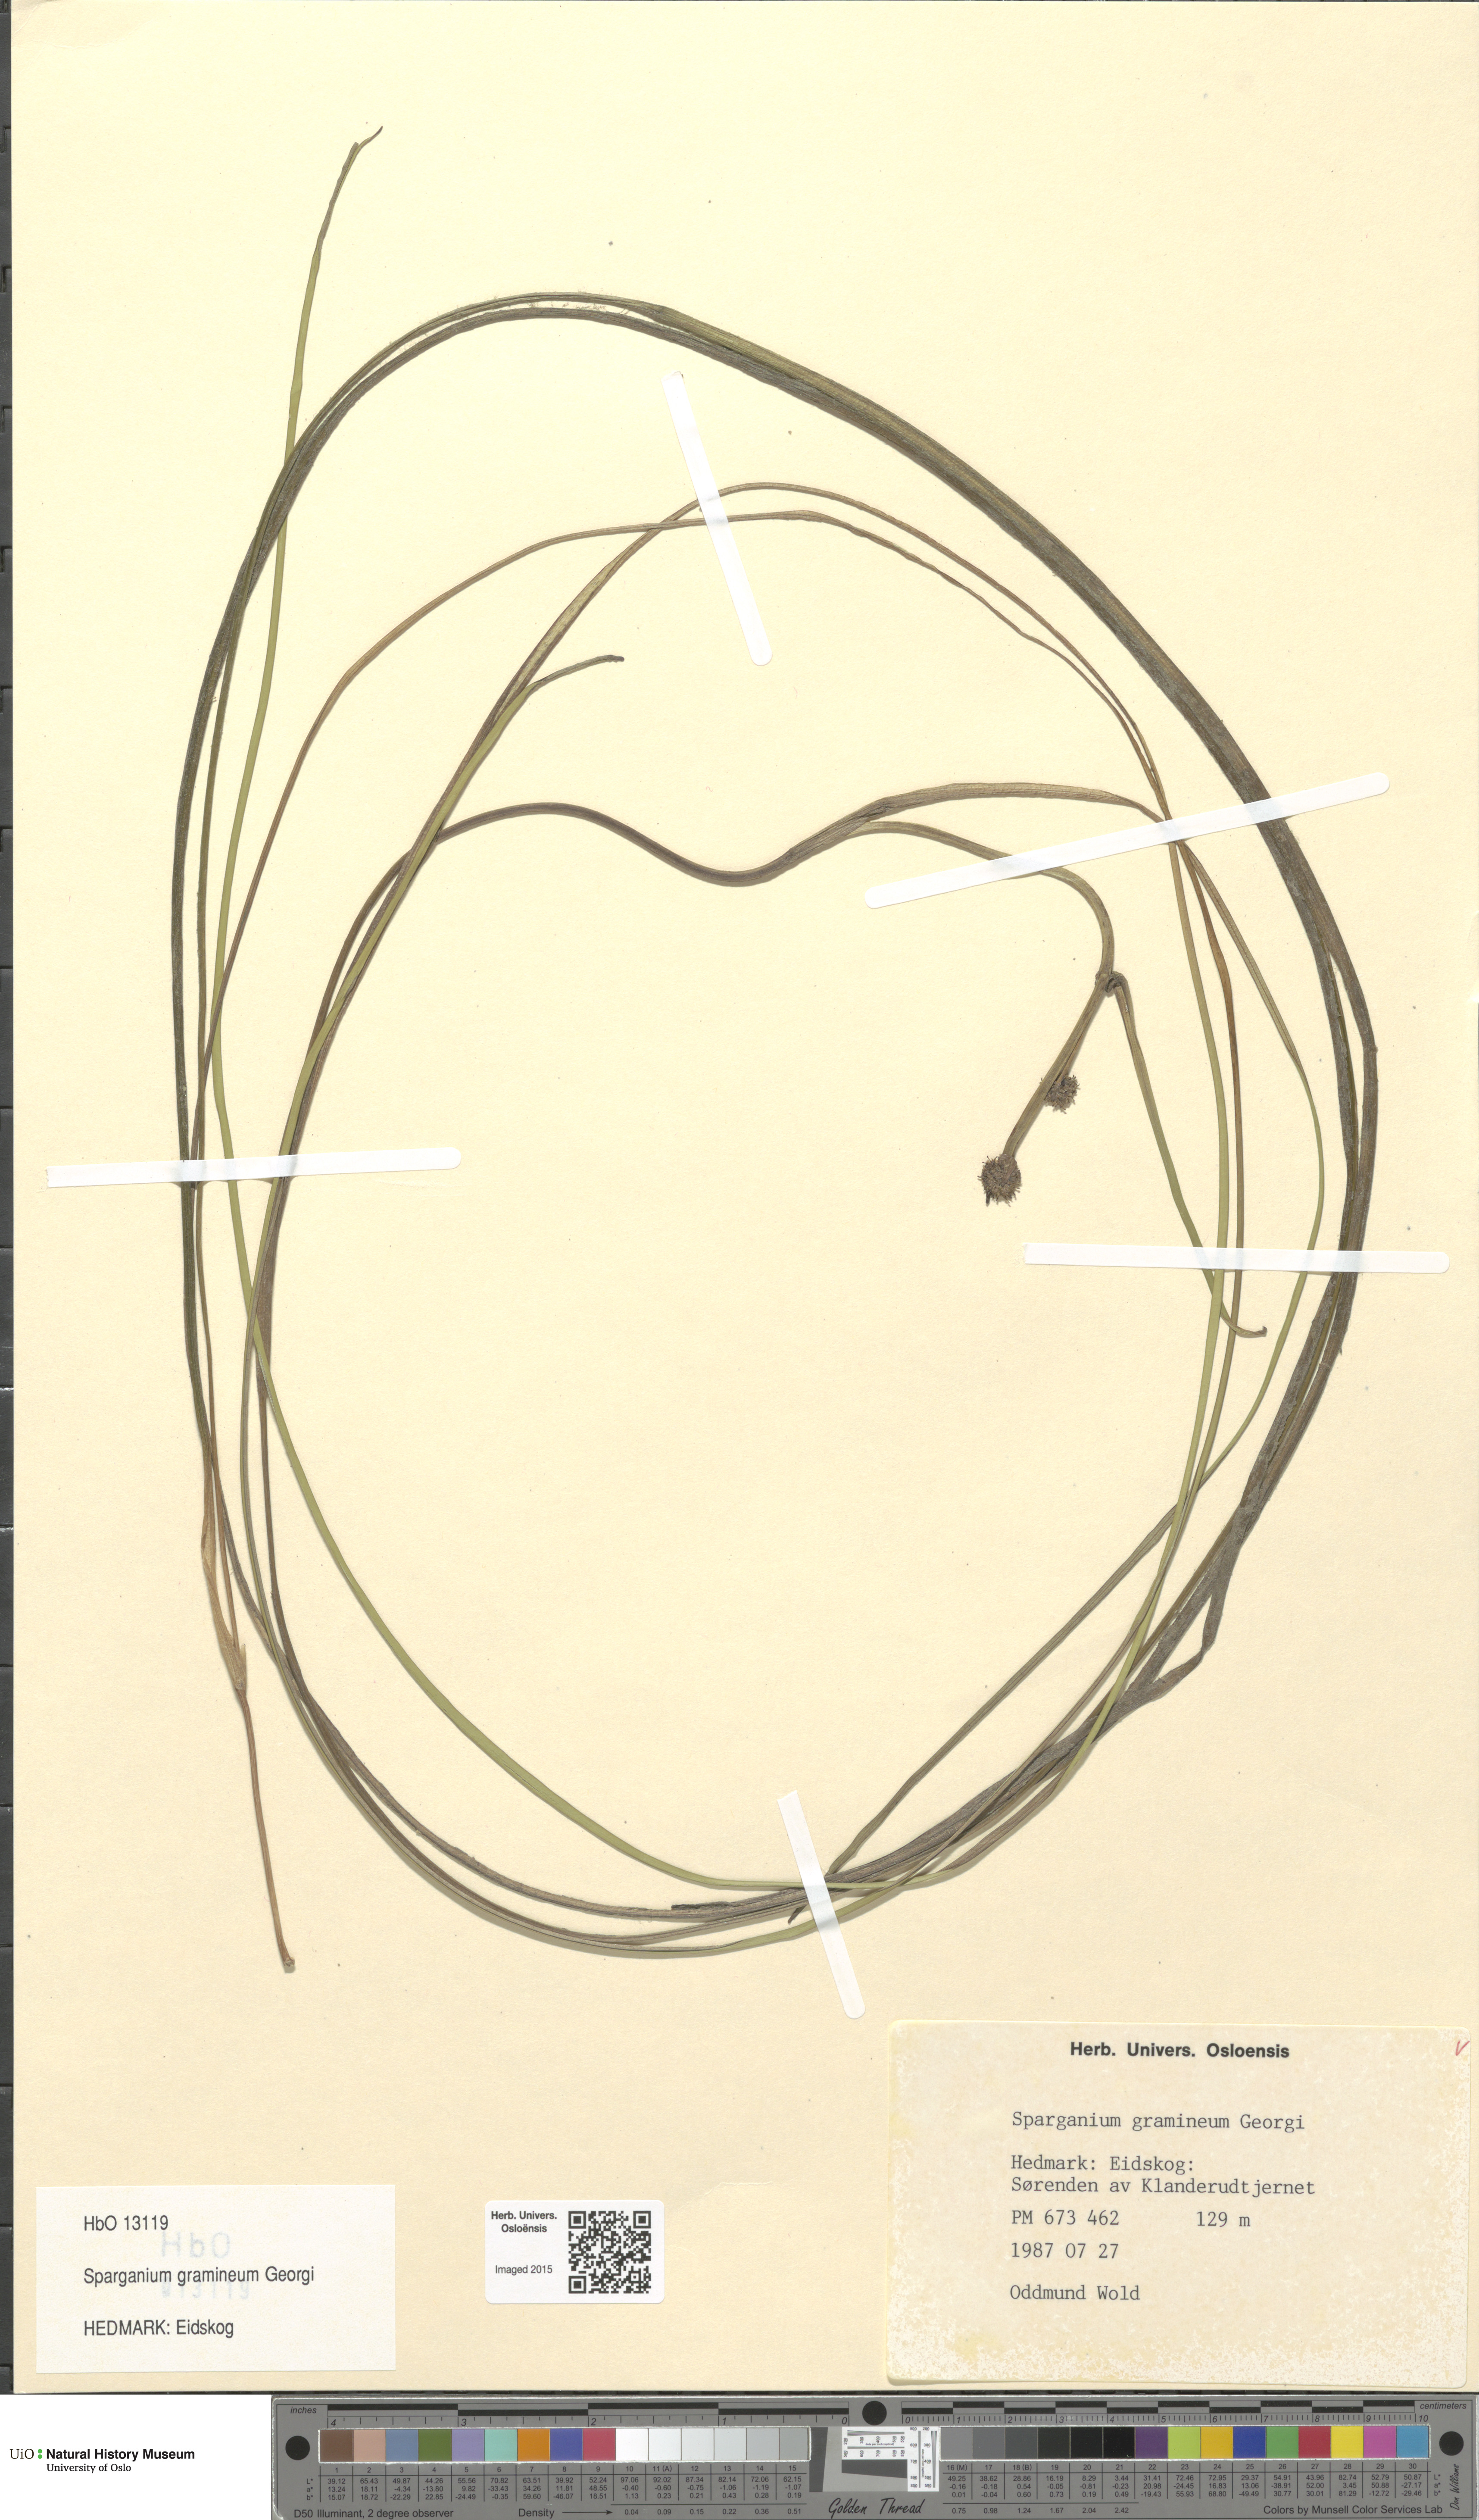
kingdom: Plantae
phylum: Tracheophyta
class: Liliopsida
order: Poales
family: Typhaceae
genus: Sparganium
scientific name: Sparganium gramineum
